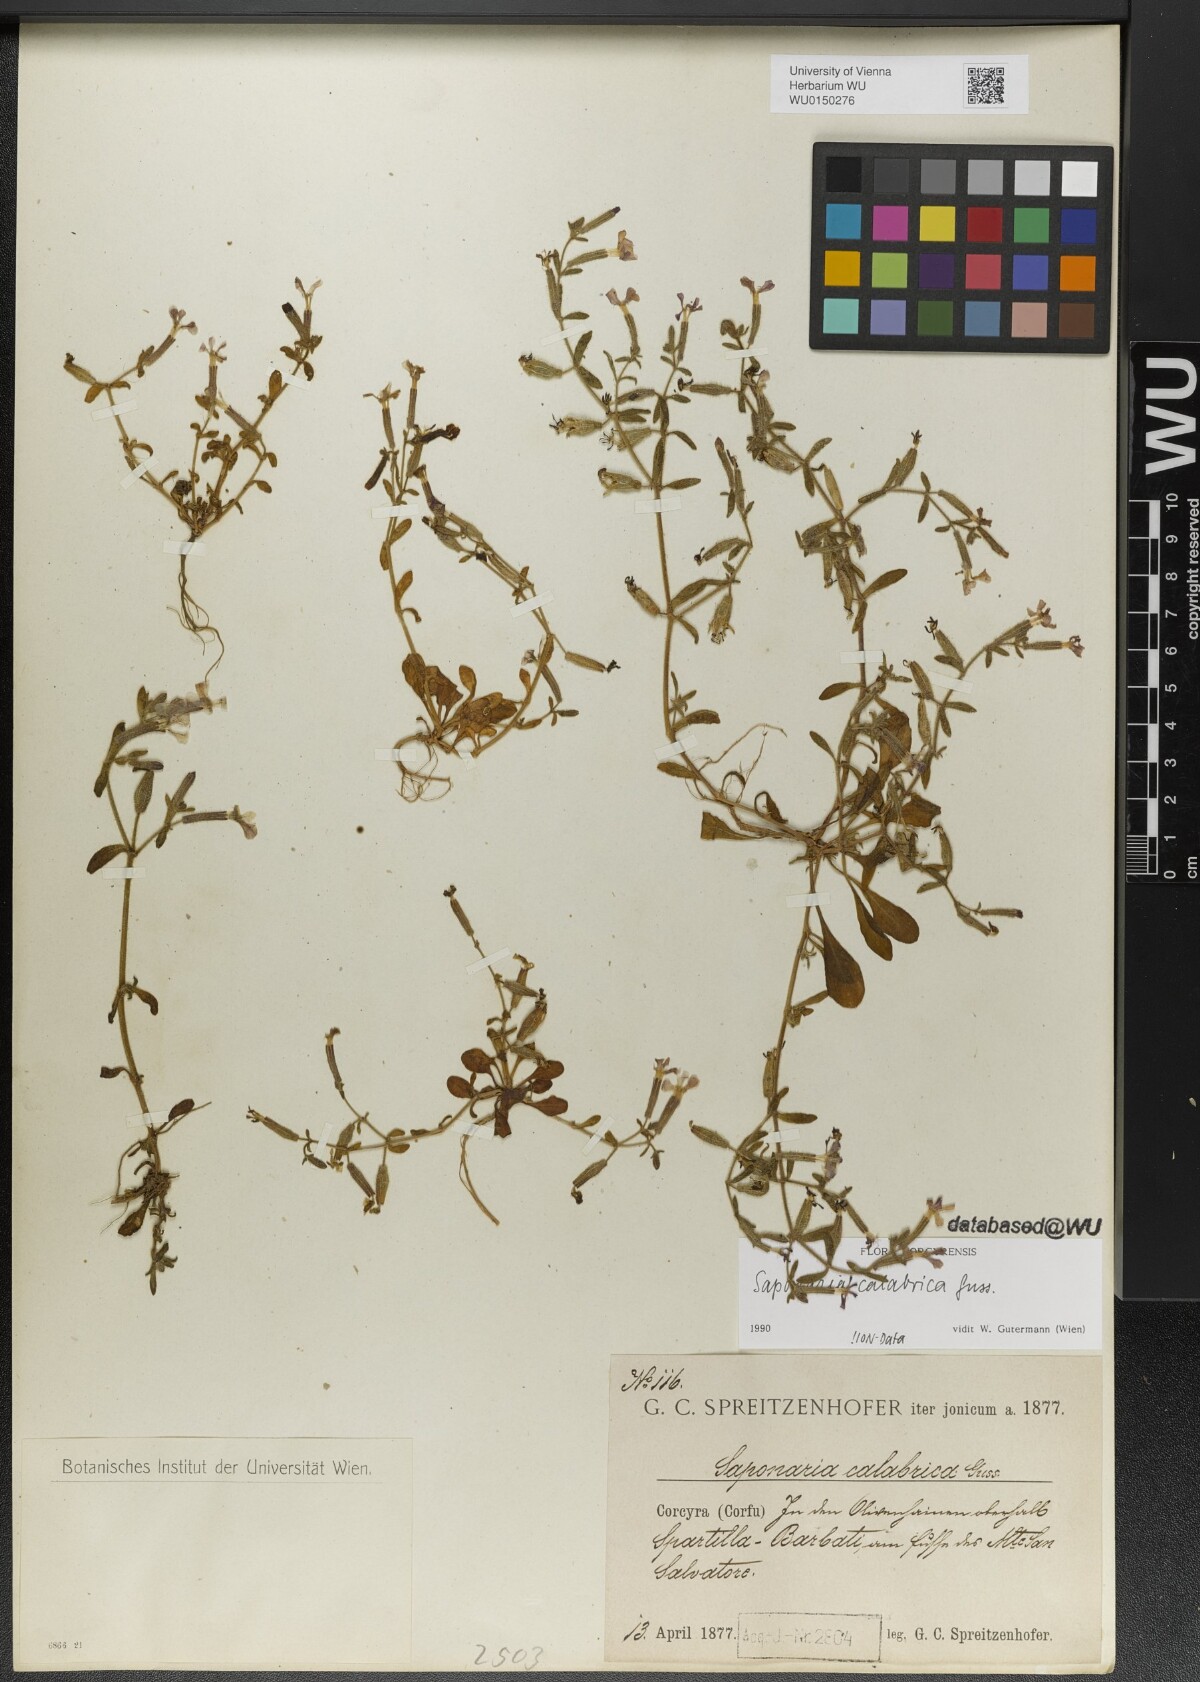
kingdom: Plantae
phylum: Tracheophyta
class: Magnoliopsida
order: Caryophyllales
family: Caryophyllaceae
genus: Saponaria
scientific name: Saponaria calabrica
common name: Adriatic soapwort
